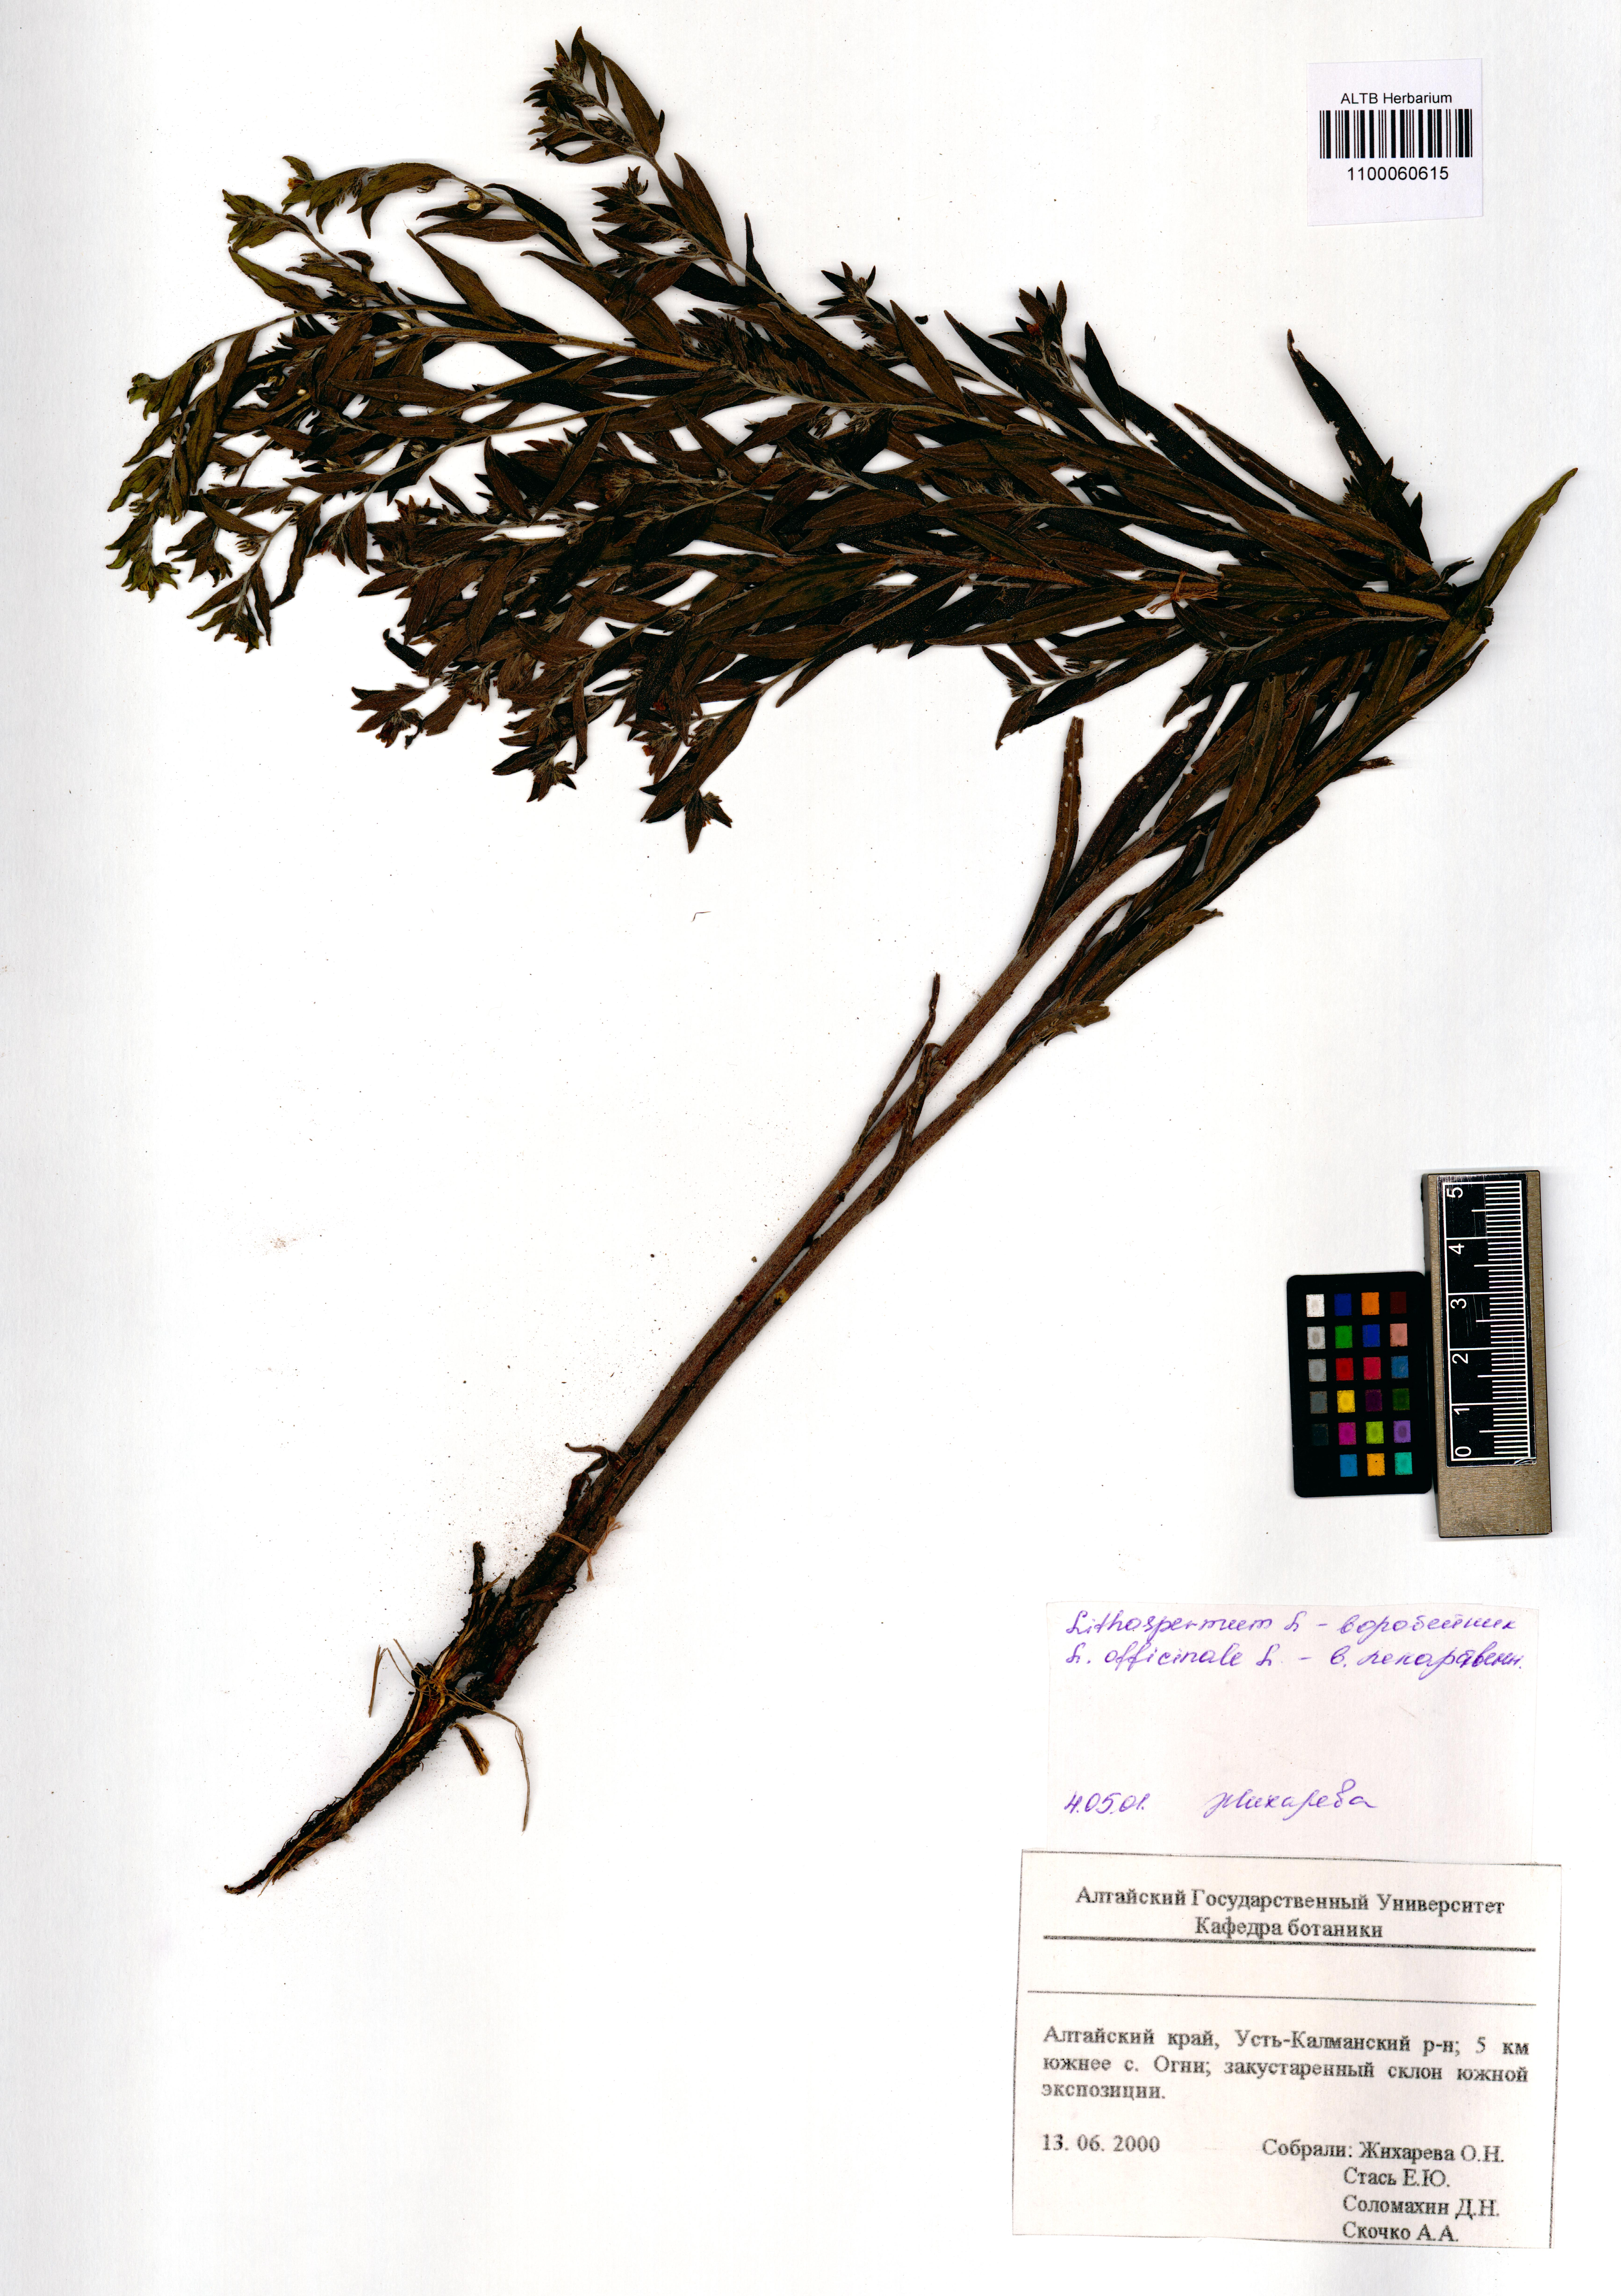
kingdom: Plantae
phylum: Tracheophyta
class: Magnoliopsida
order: Boraginales
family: Boraginaceae
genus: Lithospermum
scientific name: Lithospermum officinale
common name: Common gromwell
